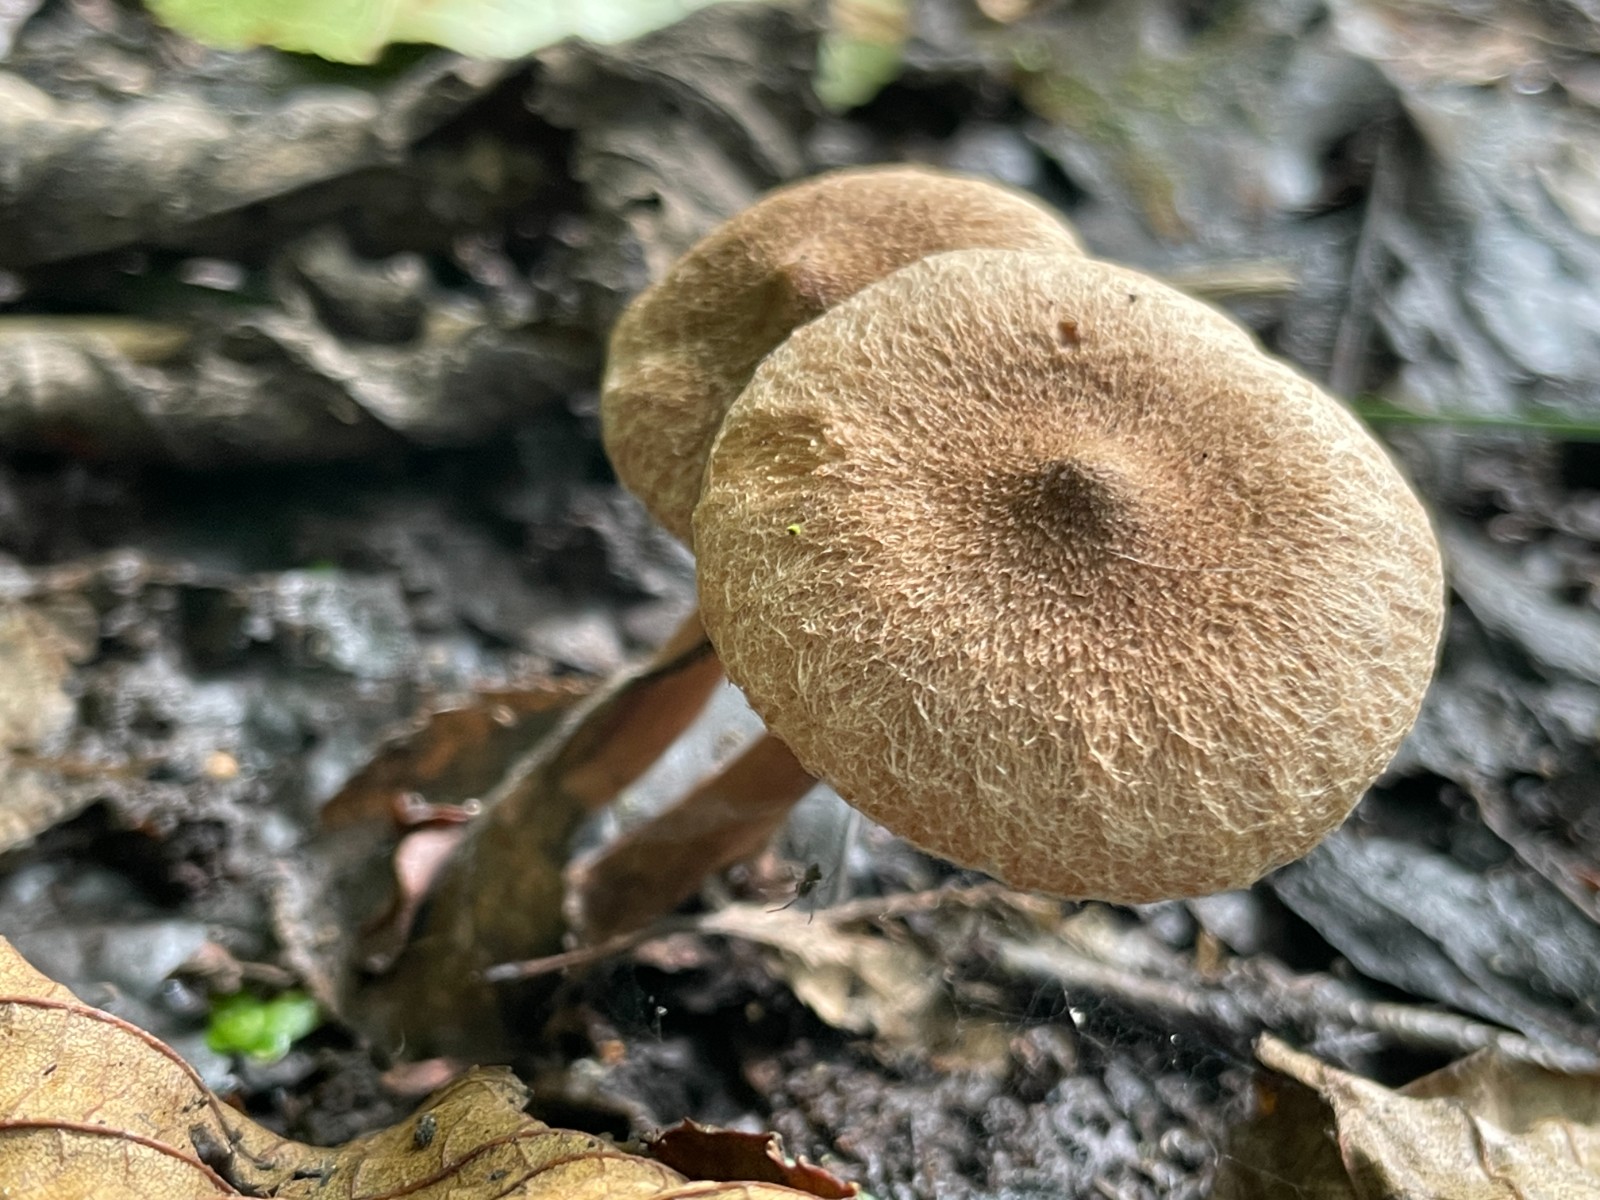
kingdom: Fungi
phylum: Basidiomycota
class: Agaricomycetes
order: Agaricales
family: Inocybaceae
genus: Inocybe
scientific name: Inocybe
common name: trævlhat
